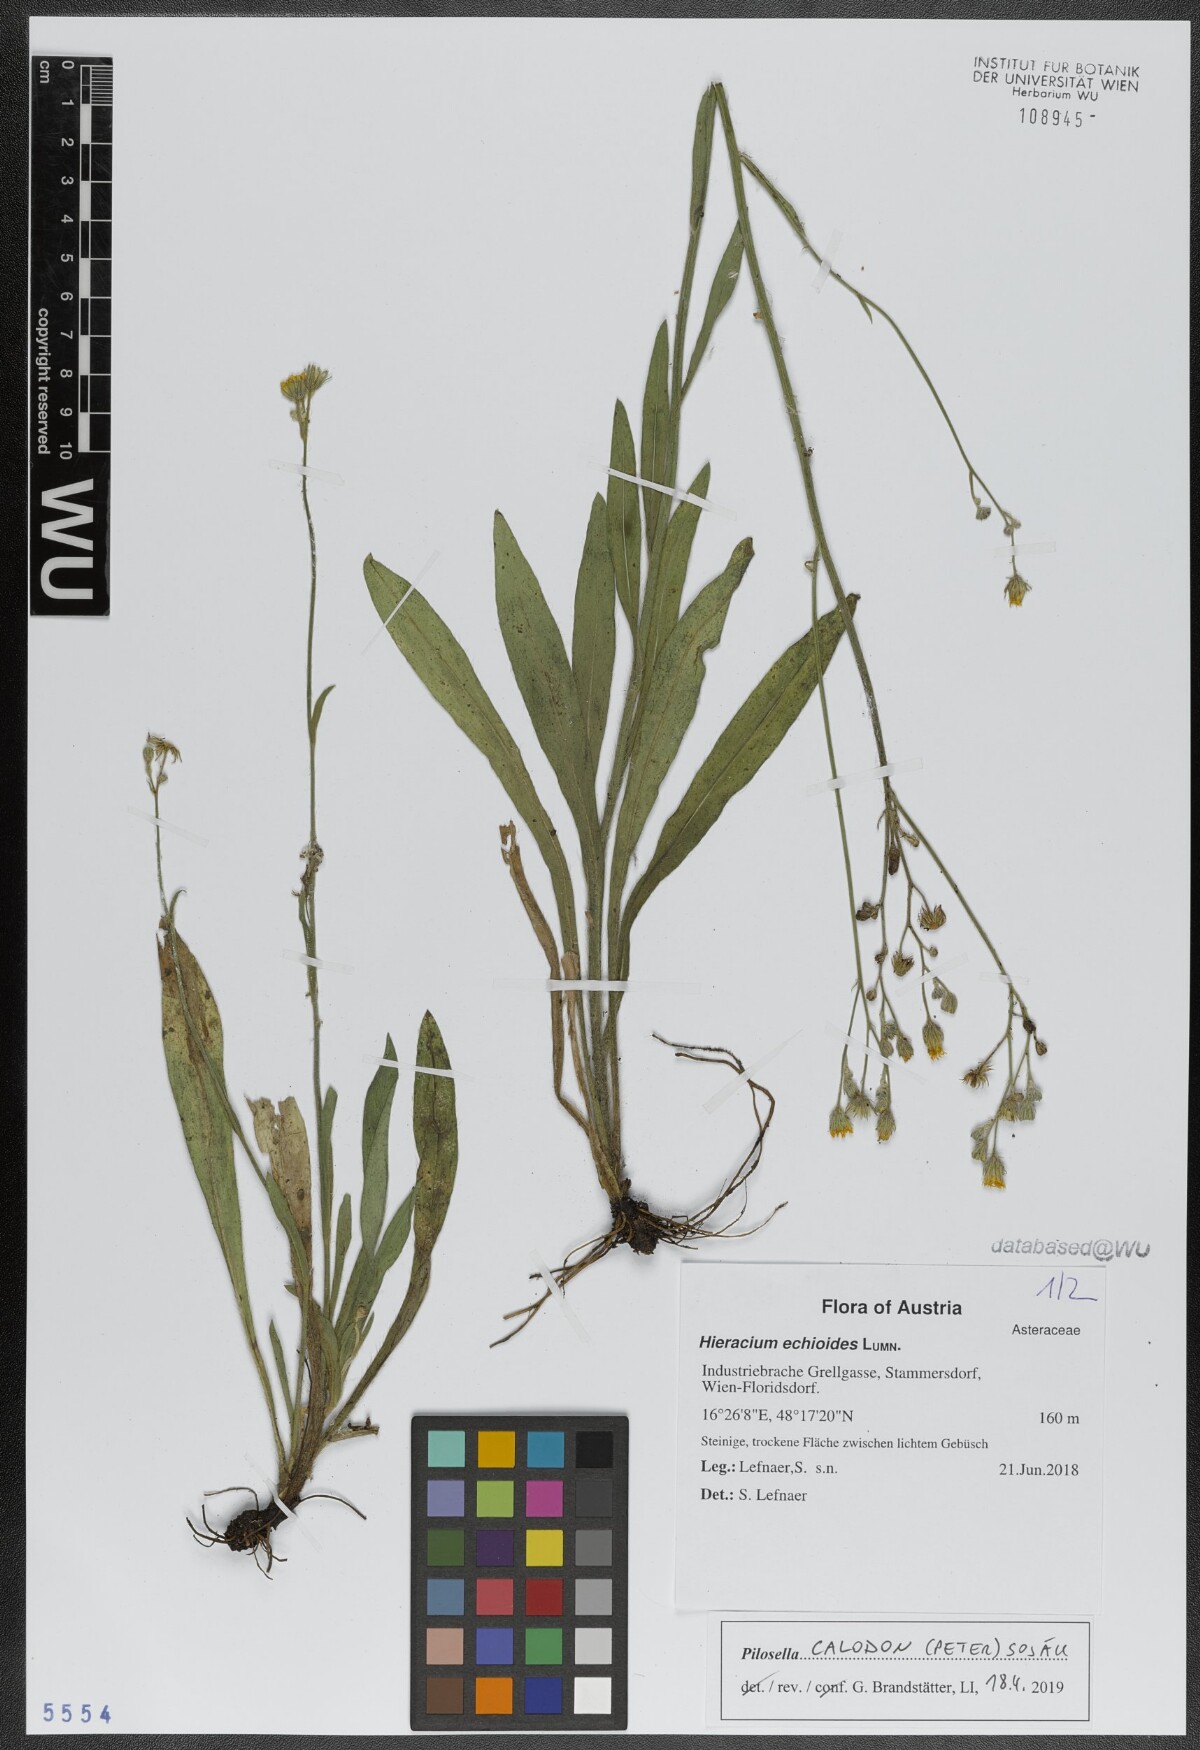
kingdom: Plantae
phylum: Tracheophyta
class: Magnoliopsida
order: Asterales
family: Asteraceae
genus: Pilosella
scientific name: Pilosella calodon
